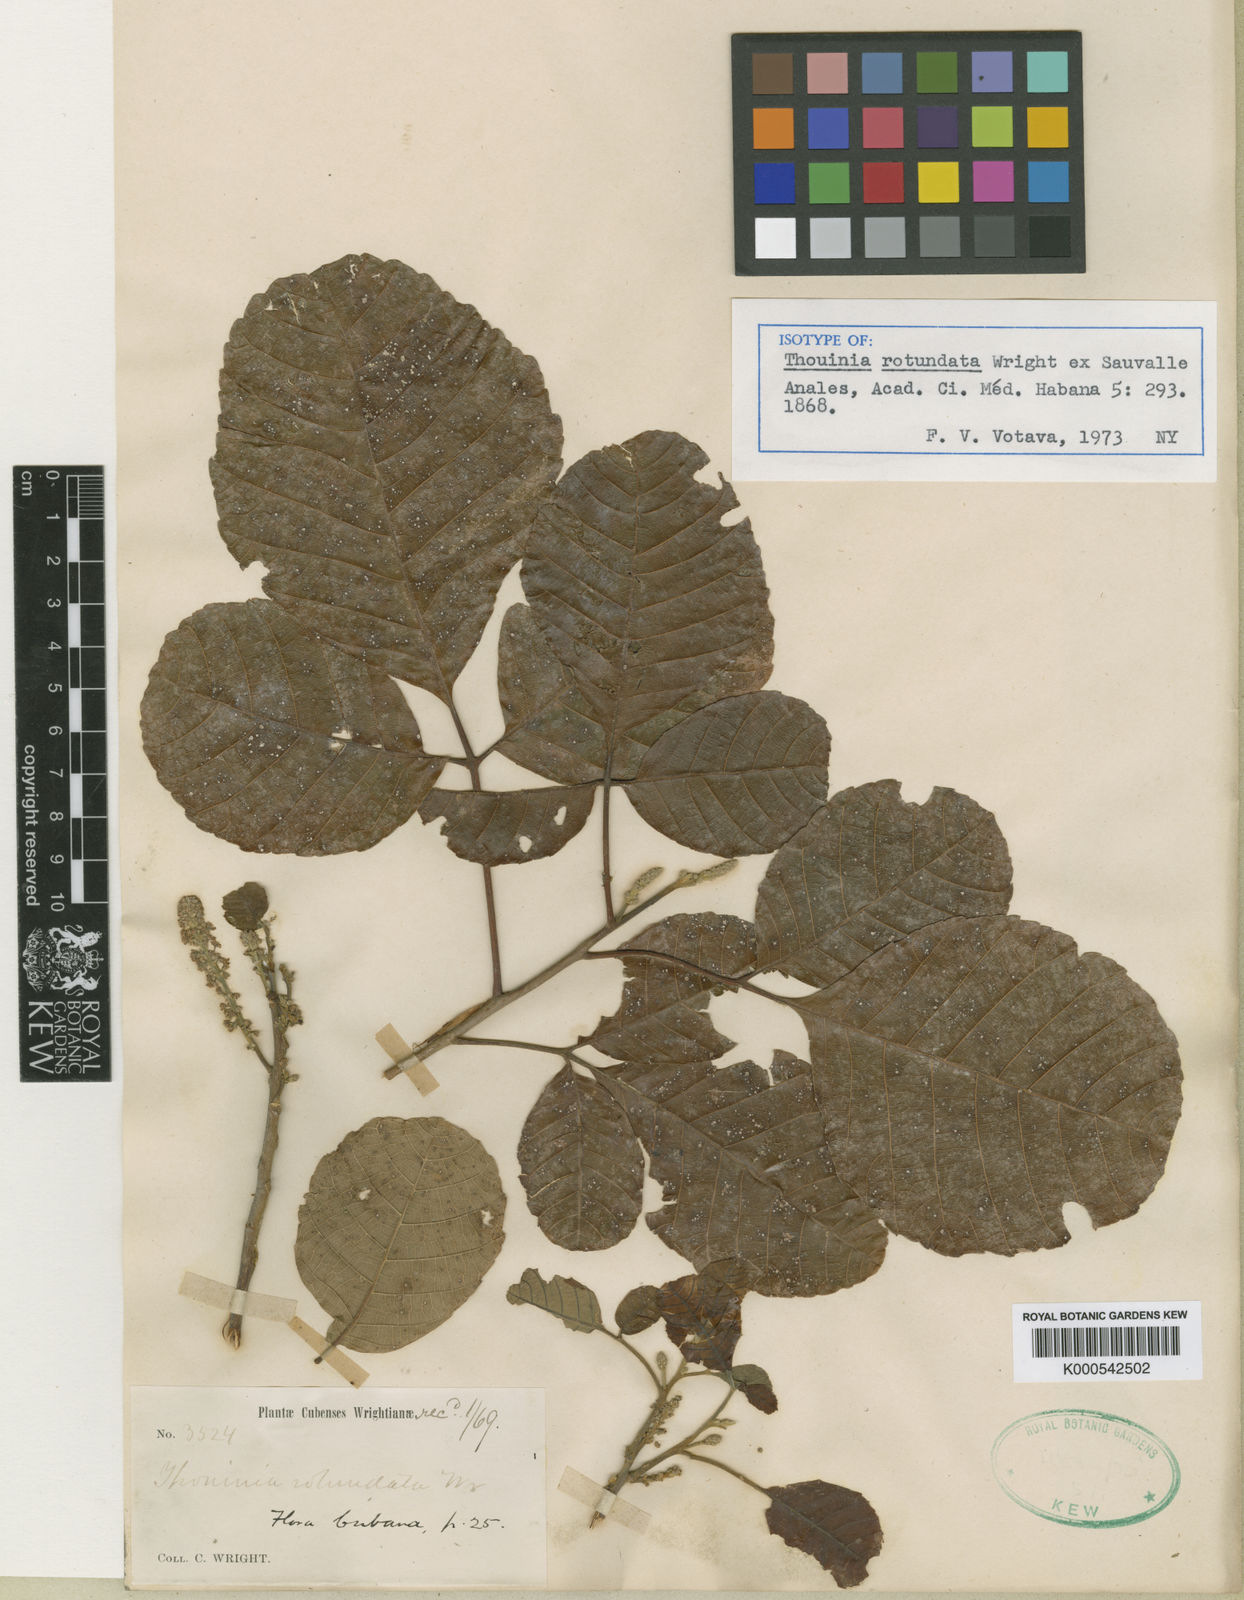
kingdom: Plantae
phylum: Tracheophyta
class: Magnoliopsida
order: Sapindales
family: Sapindaceae
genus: Thouinia
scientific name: Thouinia
